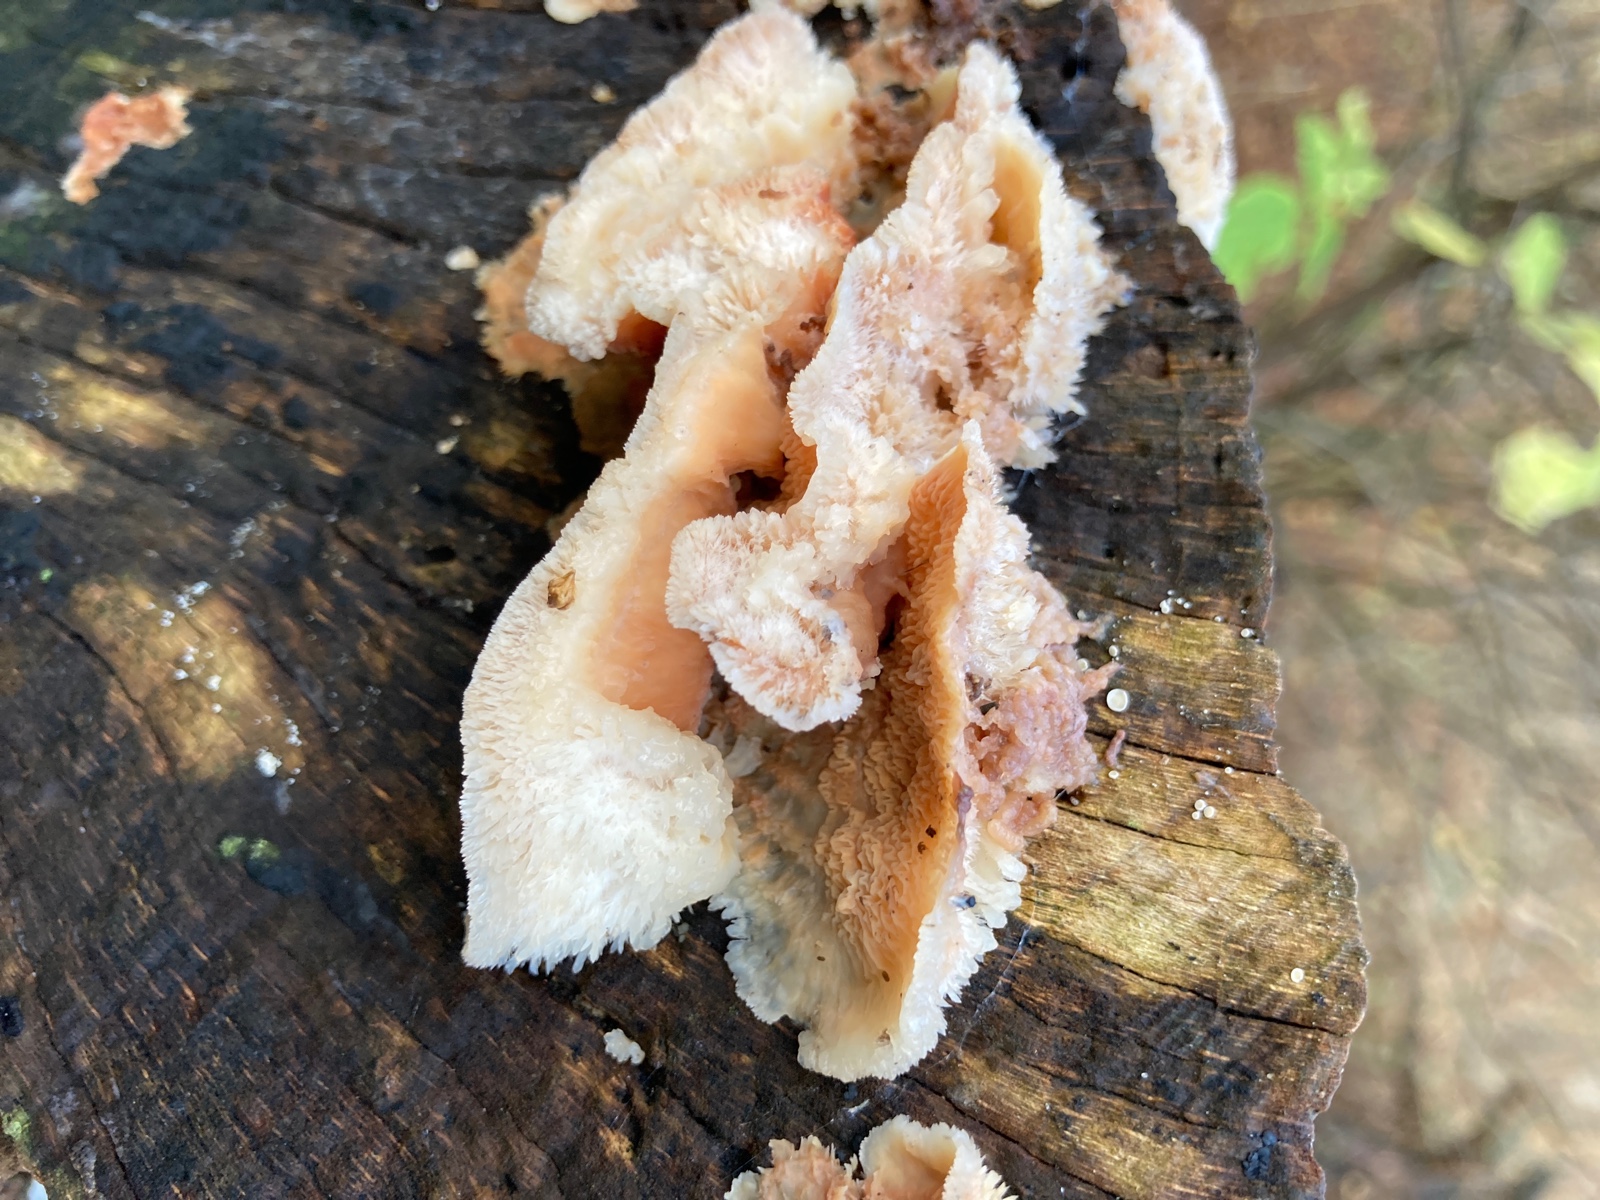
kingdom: Fungi
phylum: Basidiomycota
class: Agaricomycetes
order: Polyporales
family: Meruliaceae
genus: Phlebia
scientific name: Phlebia tremellosa
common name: bævrende åresvamp
